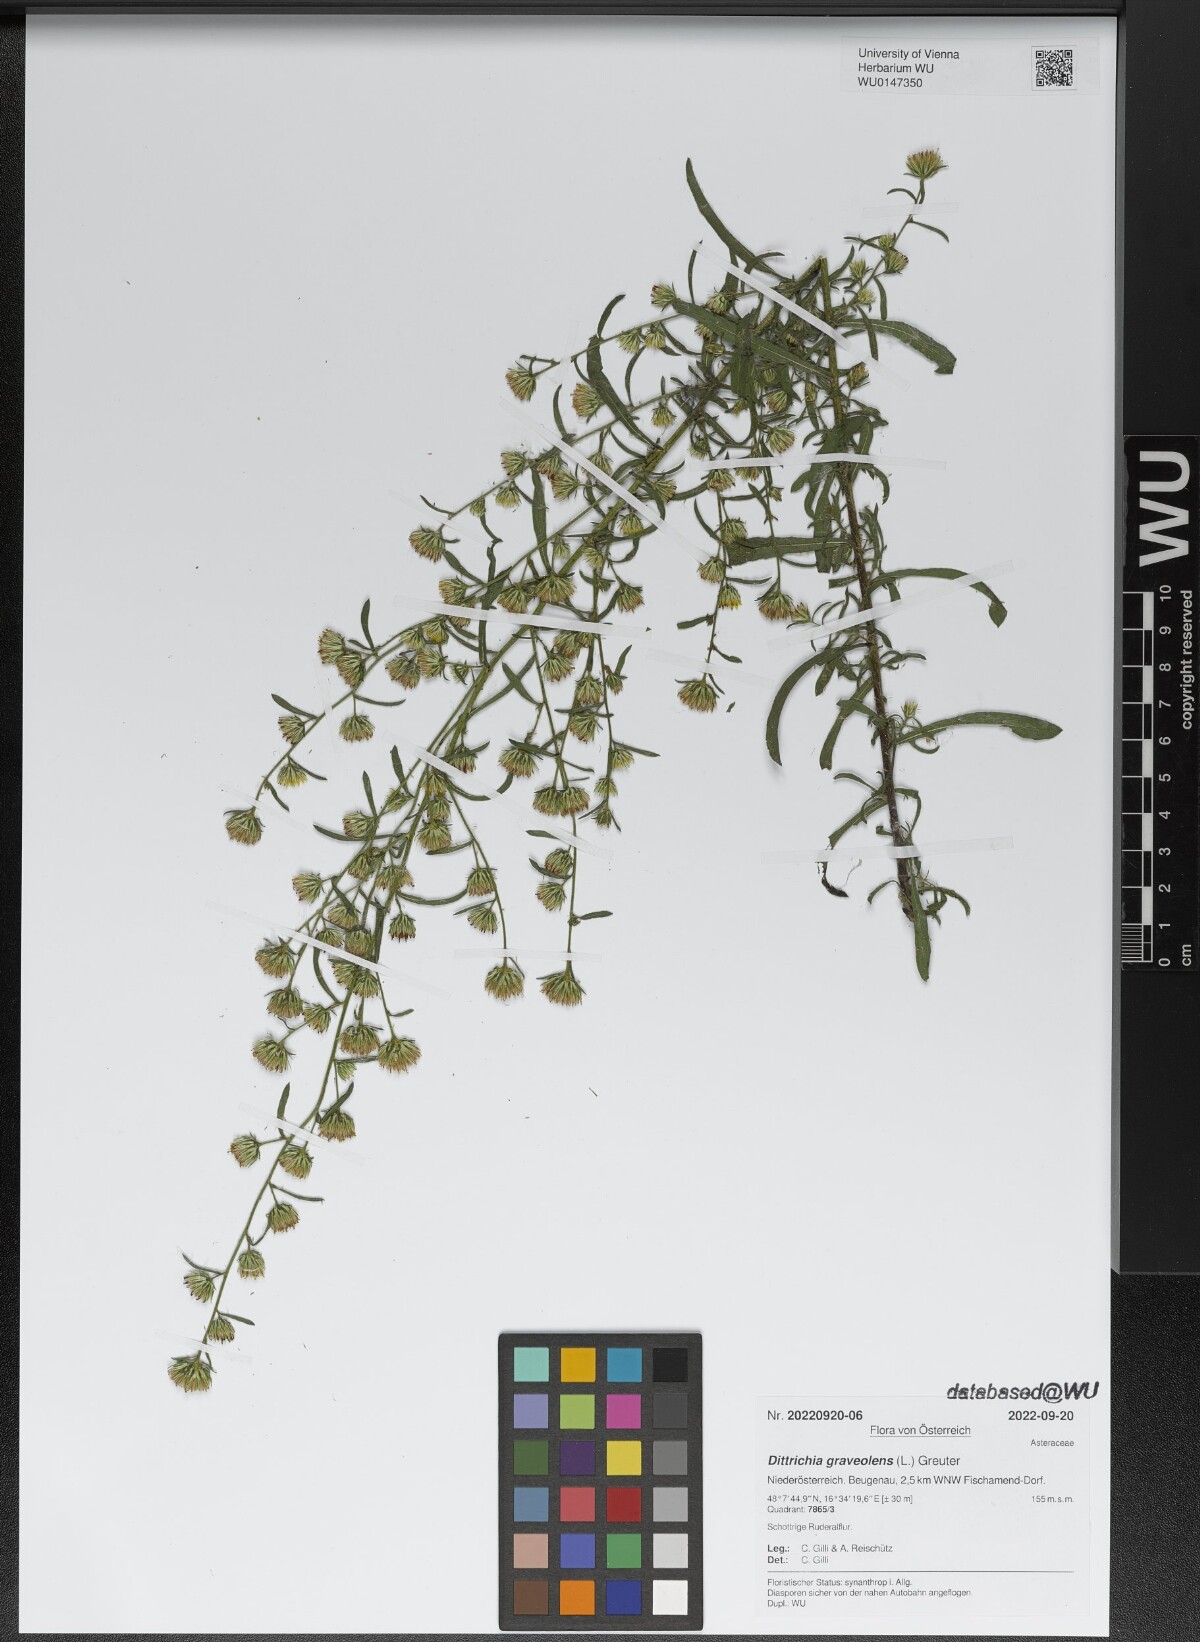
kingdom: Plantae
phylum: Tracheophyta
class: Magnoliopsida
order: Asterales
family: Asteraceae
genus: Dittrichia
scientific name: Dittrichia graveolens
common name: Stinking fleabane
